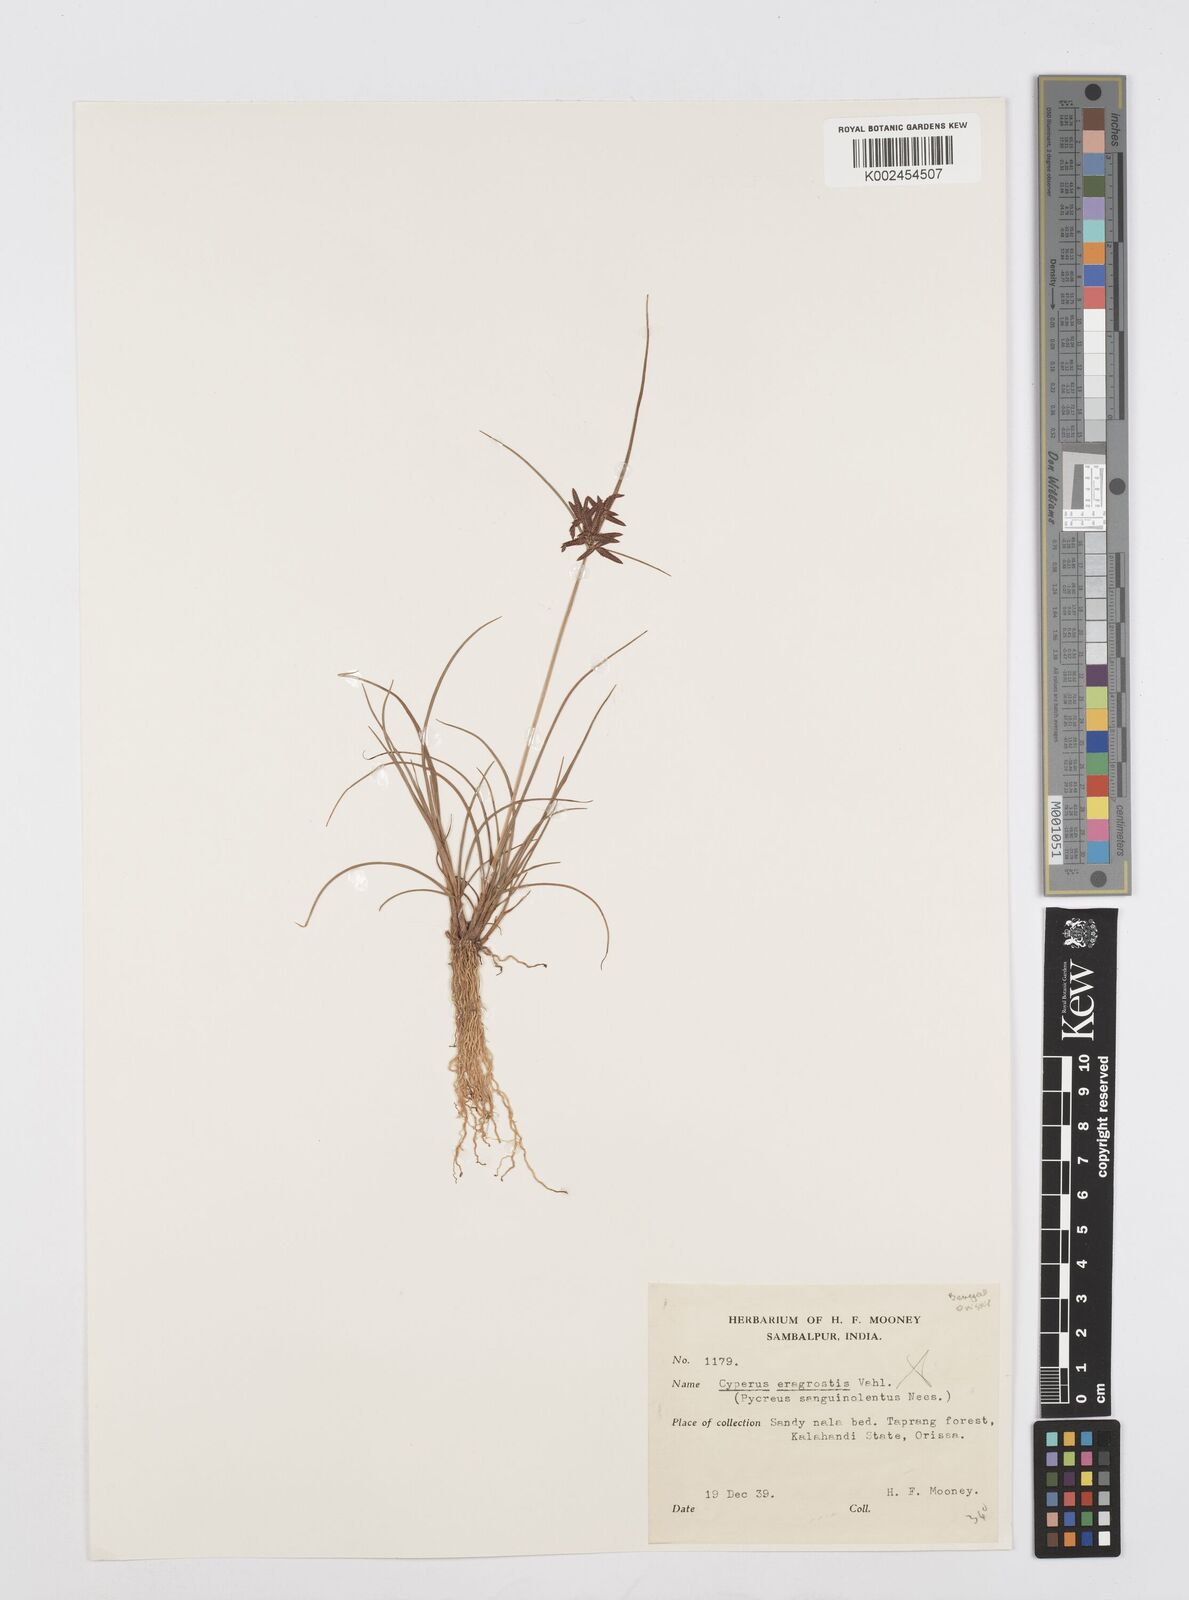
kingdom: Plantae
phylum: Tracheophyta
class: Liliopsida
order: Poales
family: Cyperaceae
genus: Cyperus
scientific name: Cyperus
